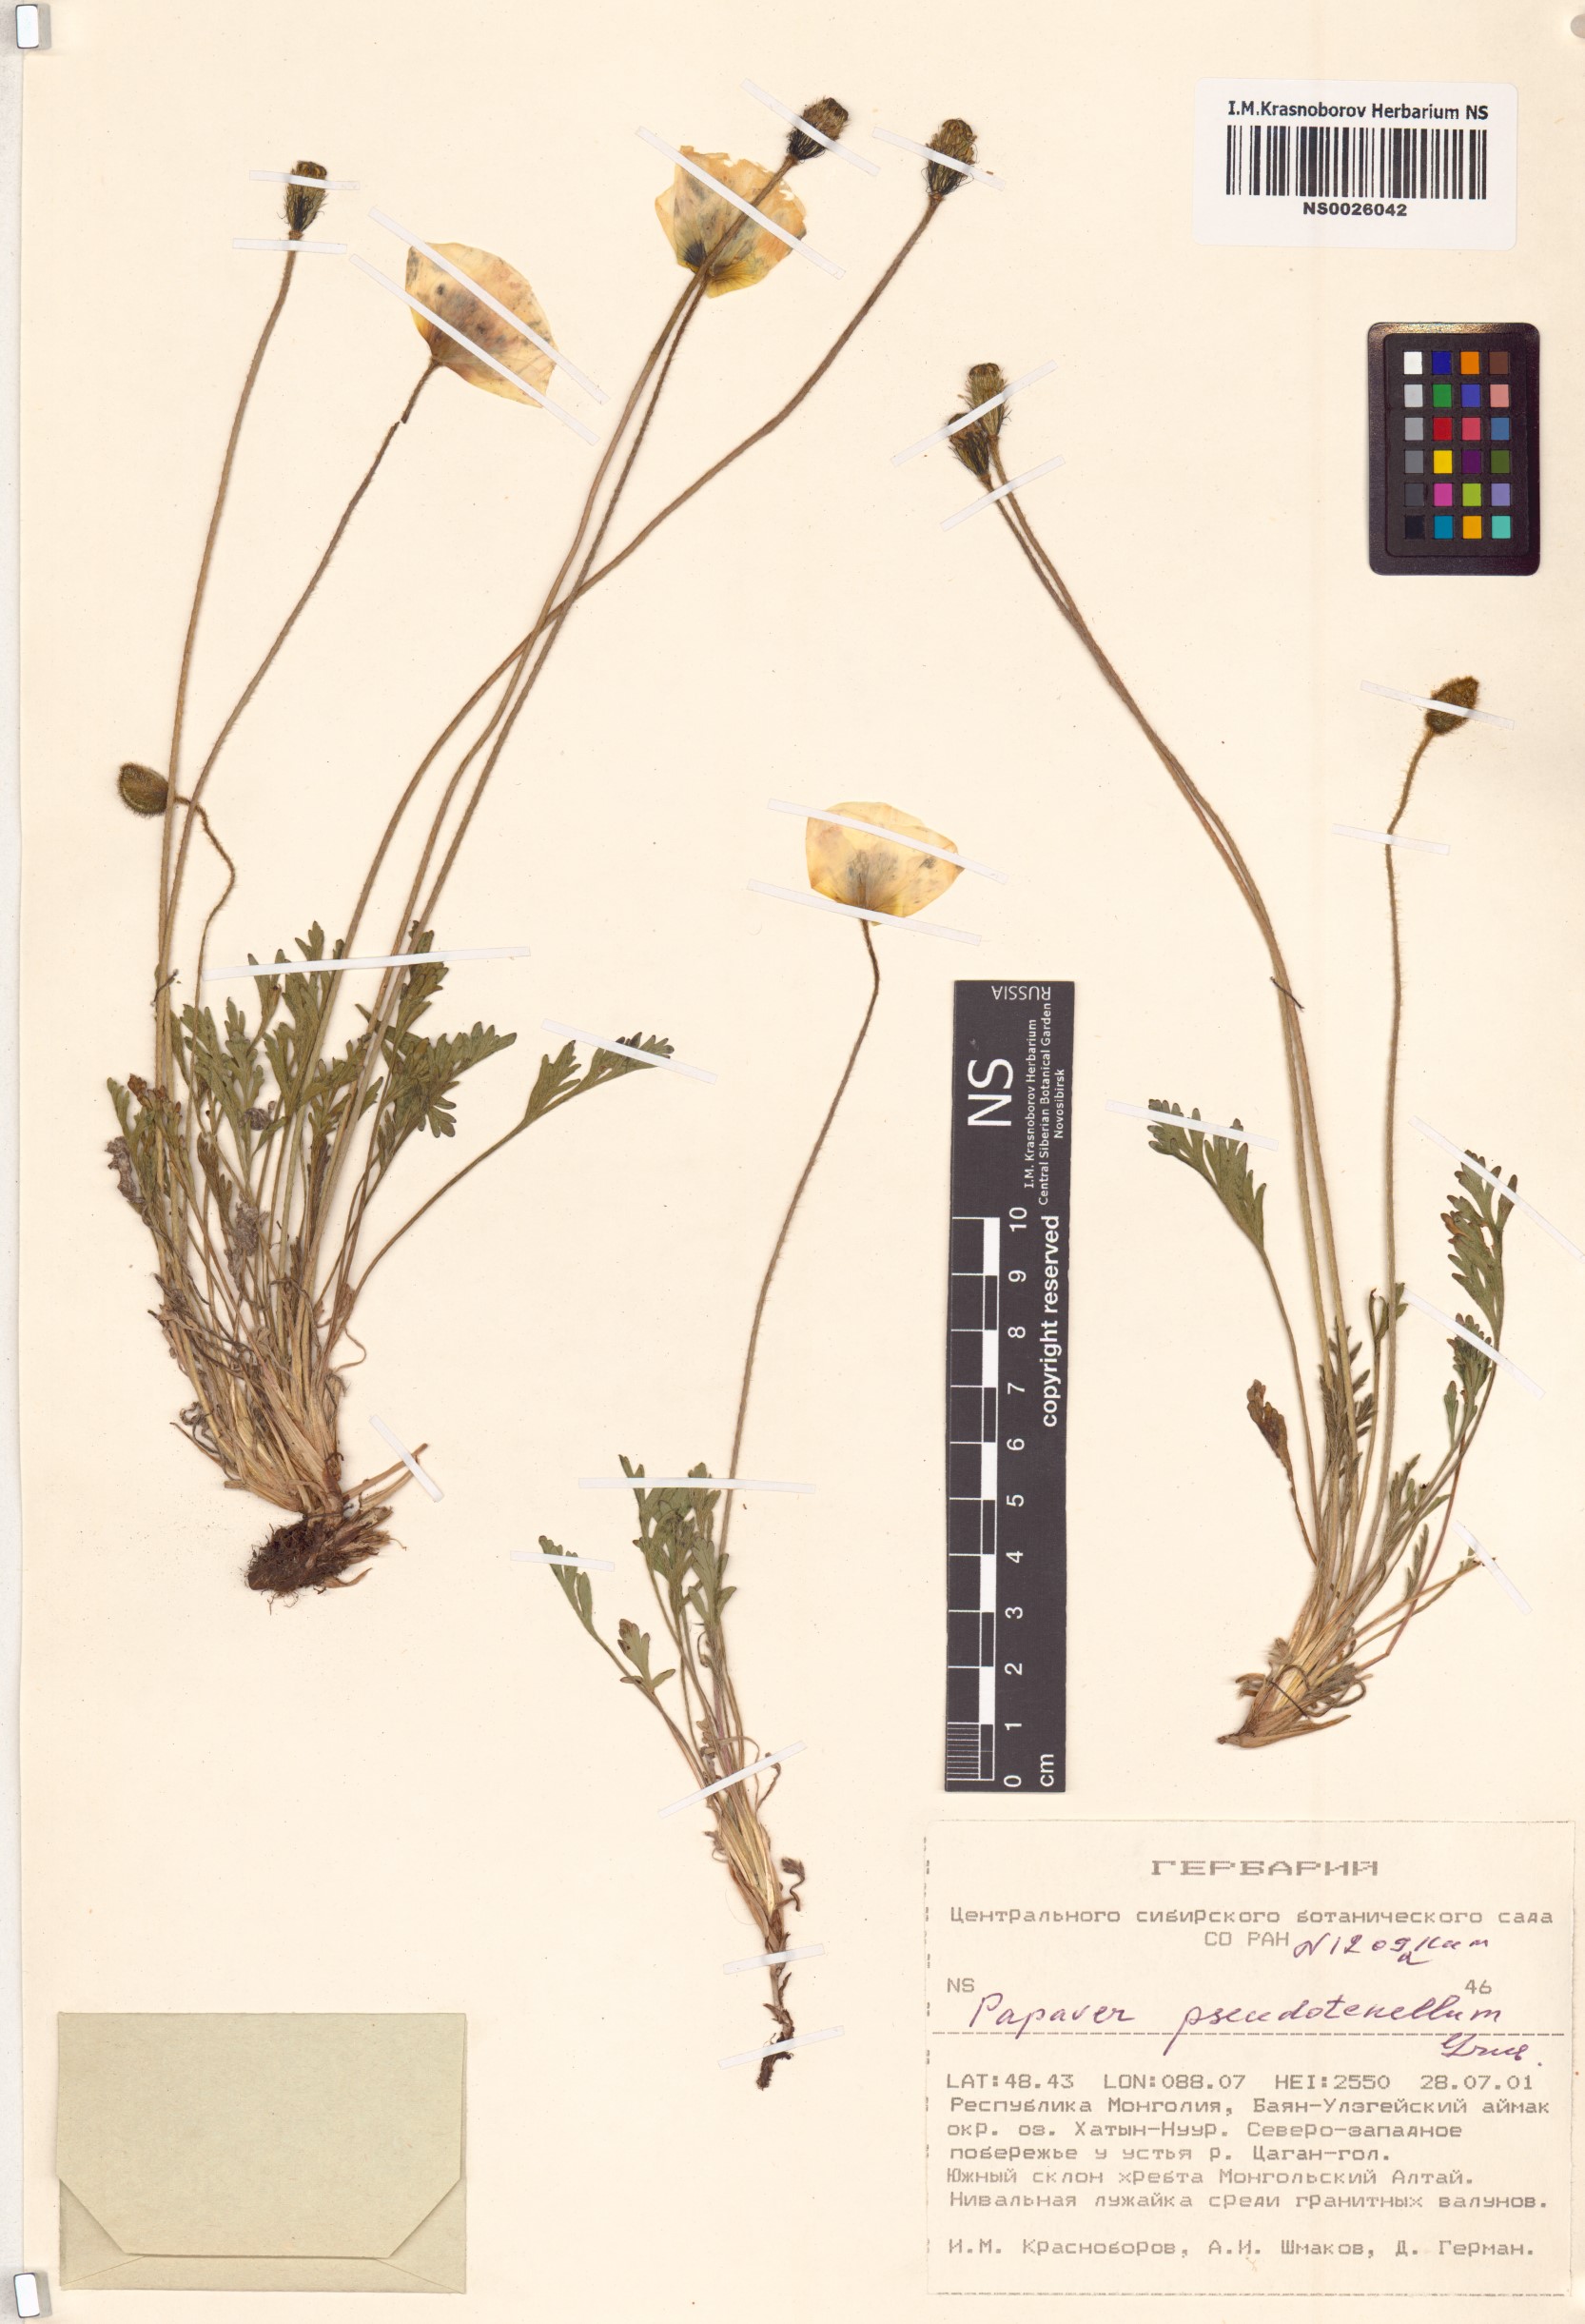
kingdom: Plantae
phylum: Tracheophyta
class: Magnoliopsida
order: Ranunculales
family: Papaveraceae
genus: Papaver
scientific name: Papaver croceum
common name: Siberian poppy
